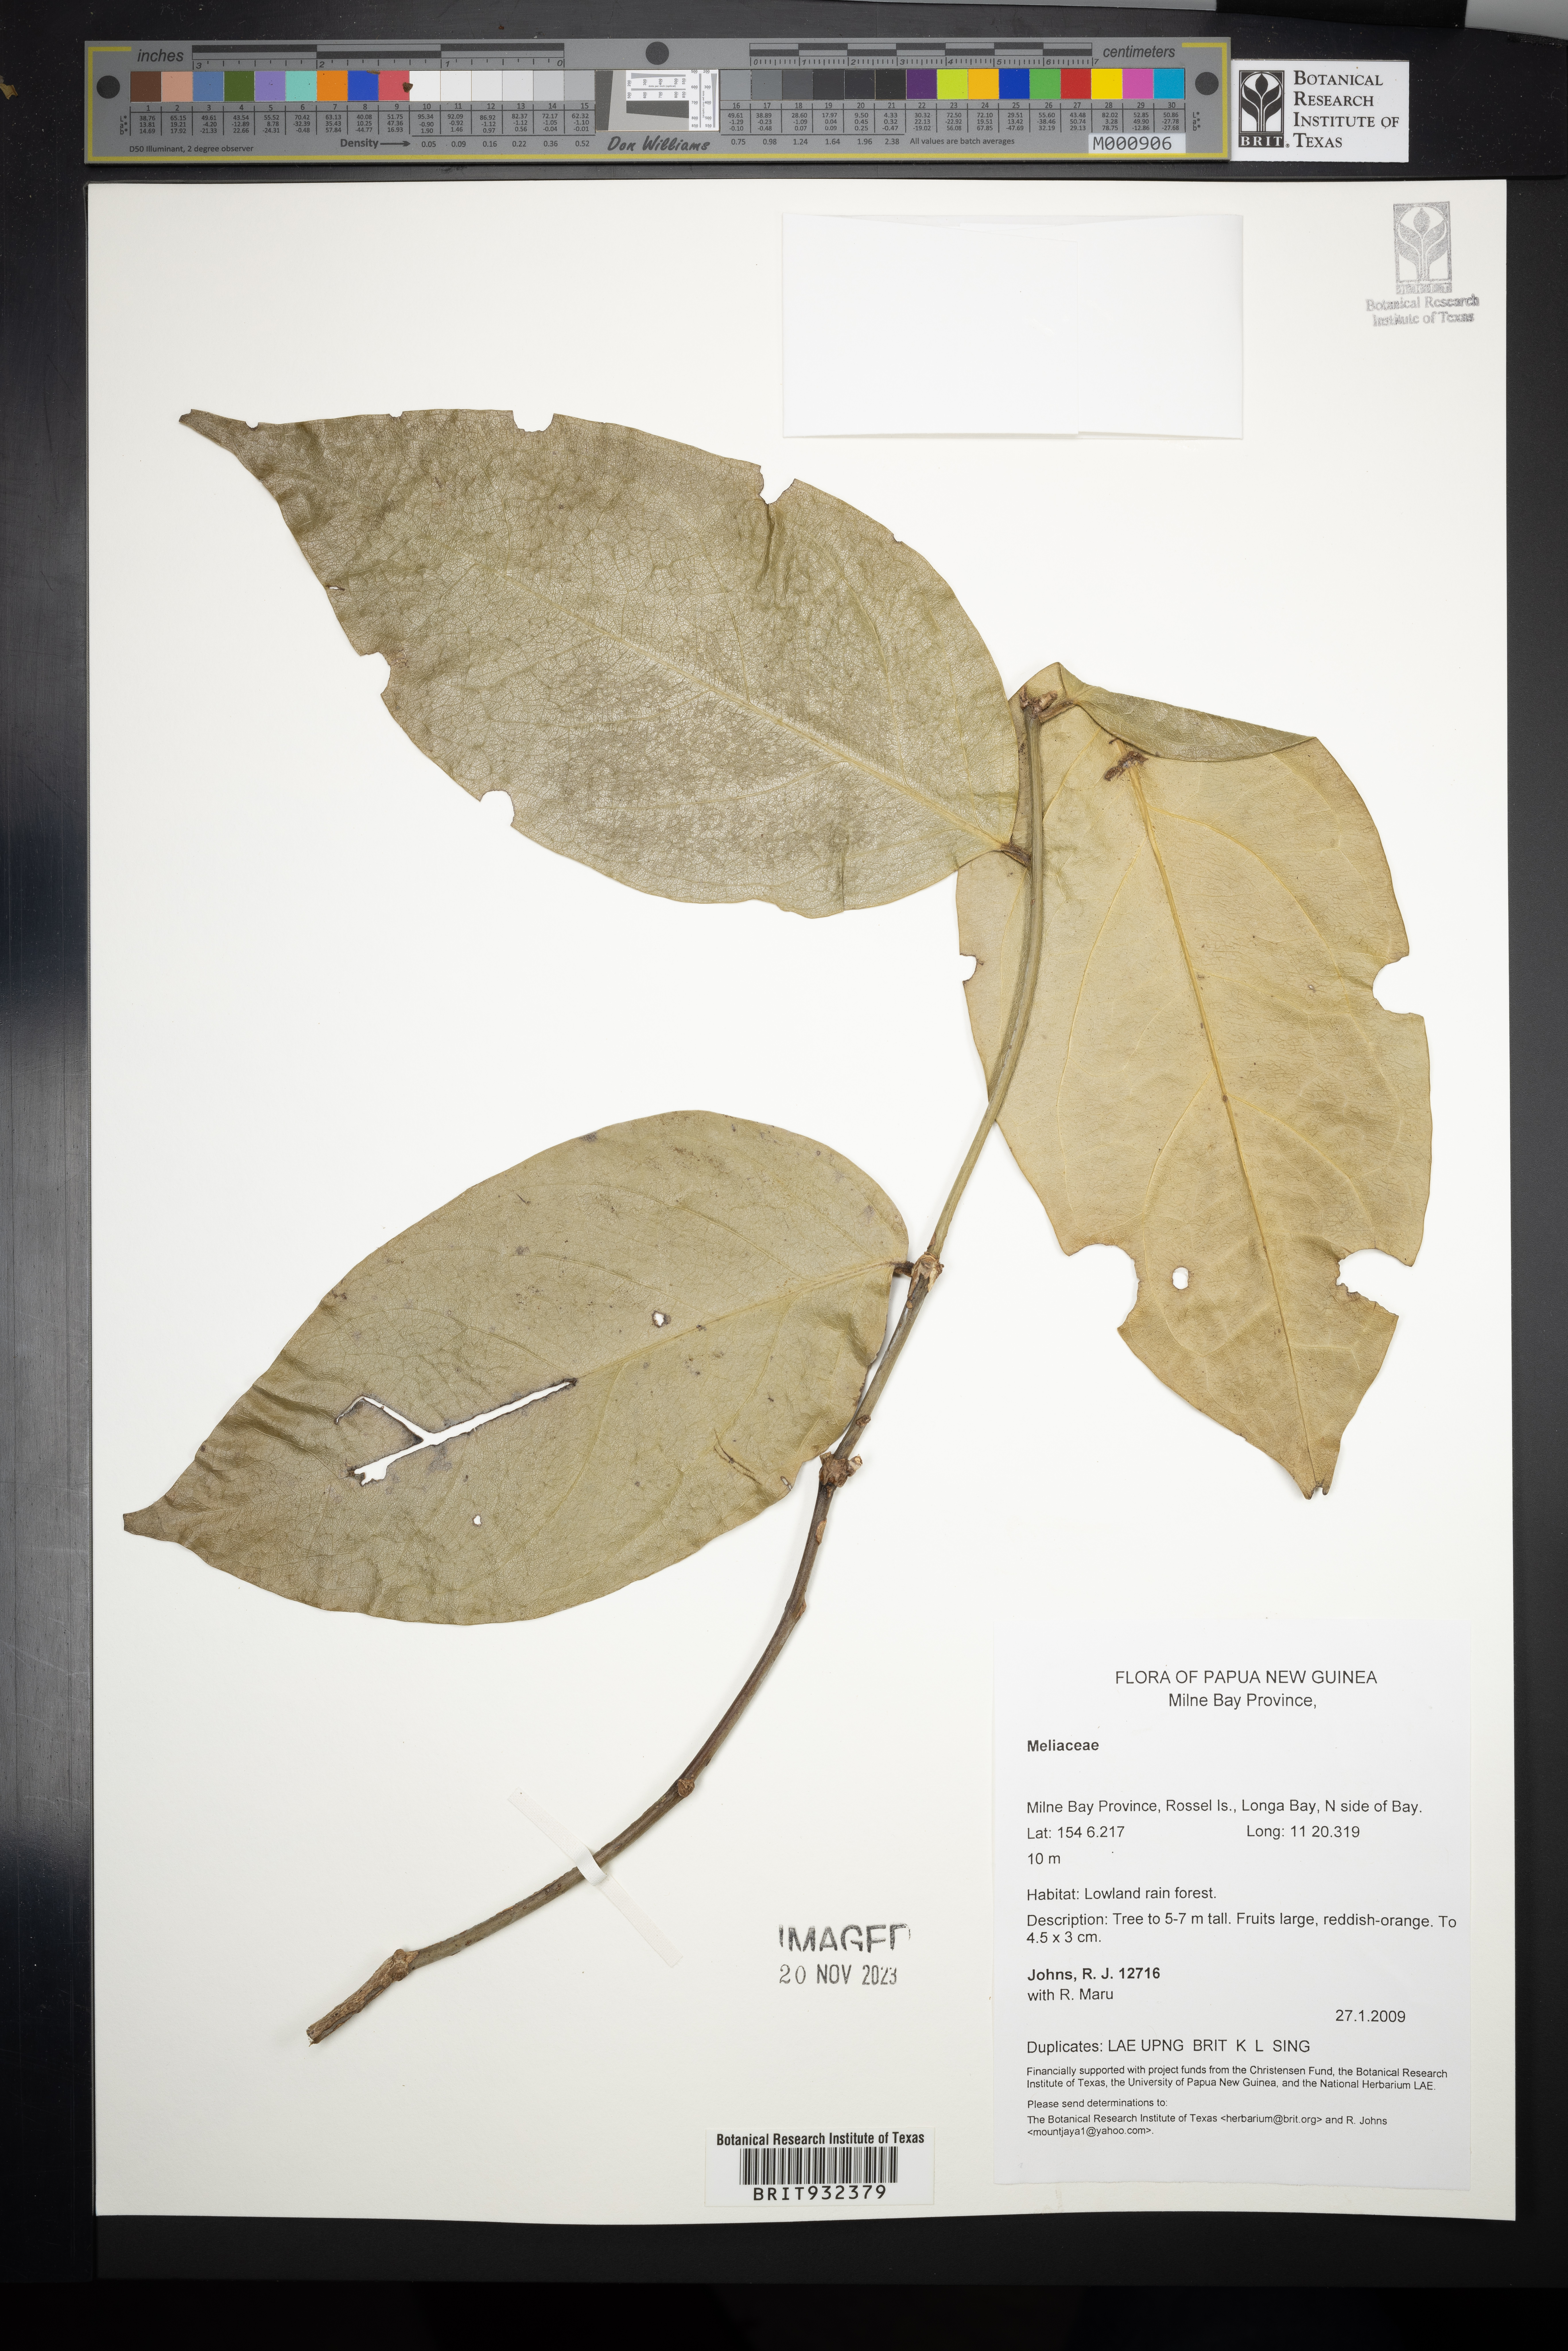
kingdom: Plantae
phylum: Tracheophyta
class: Magnoliopsida
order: Sapindales
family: Meliaceae
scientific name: Meliaceae
